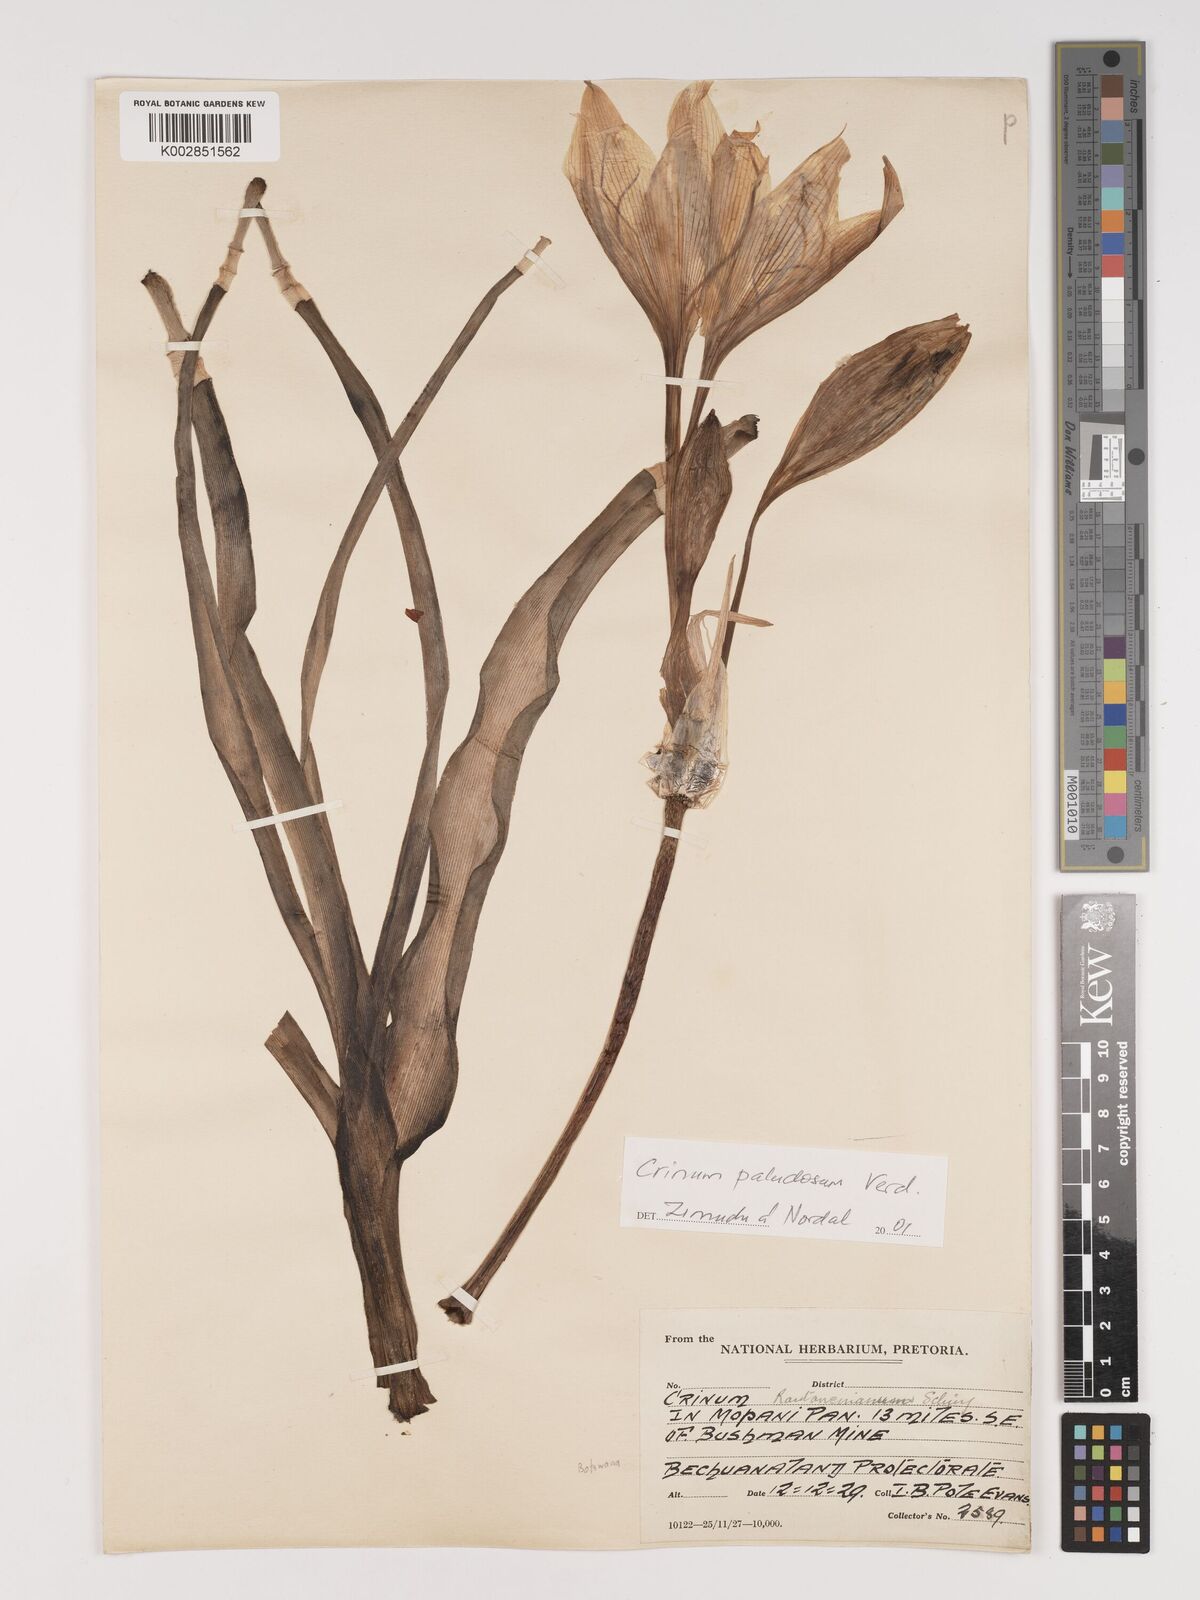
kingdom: Plantae
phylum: Tracheophyta
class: Liliopsida
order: Asparagales
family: Amaryllidaceae
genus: Crinum
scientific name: Crinum paludosum
